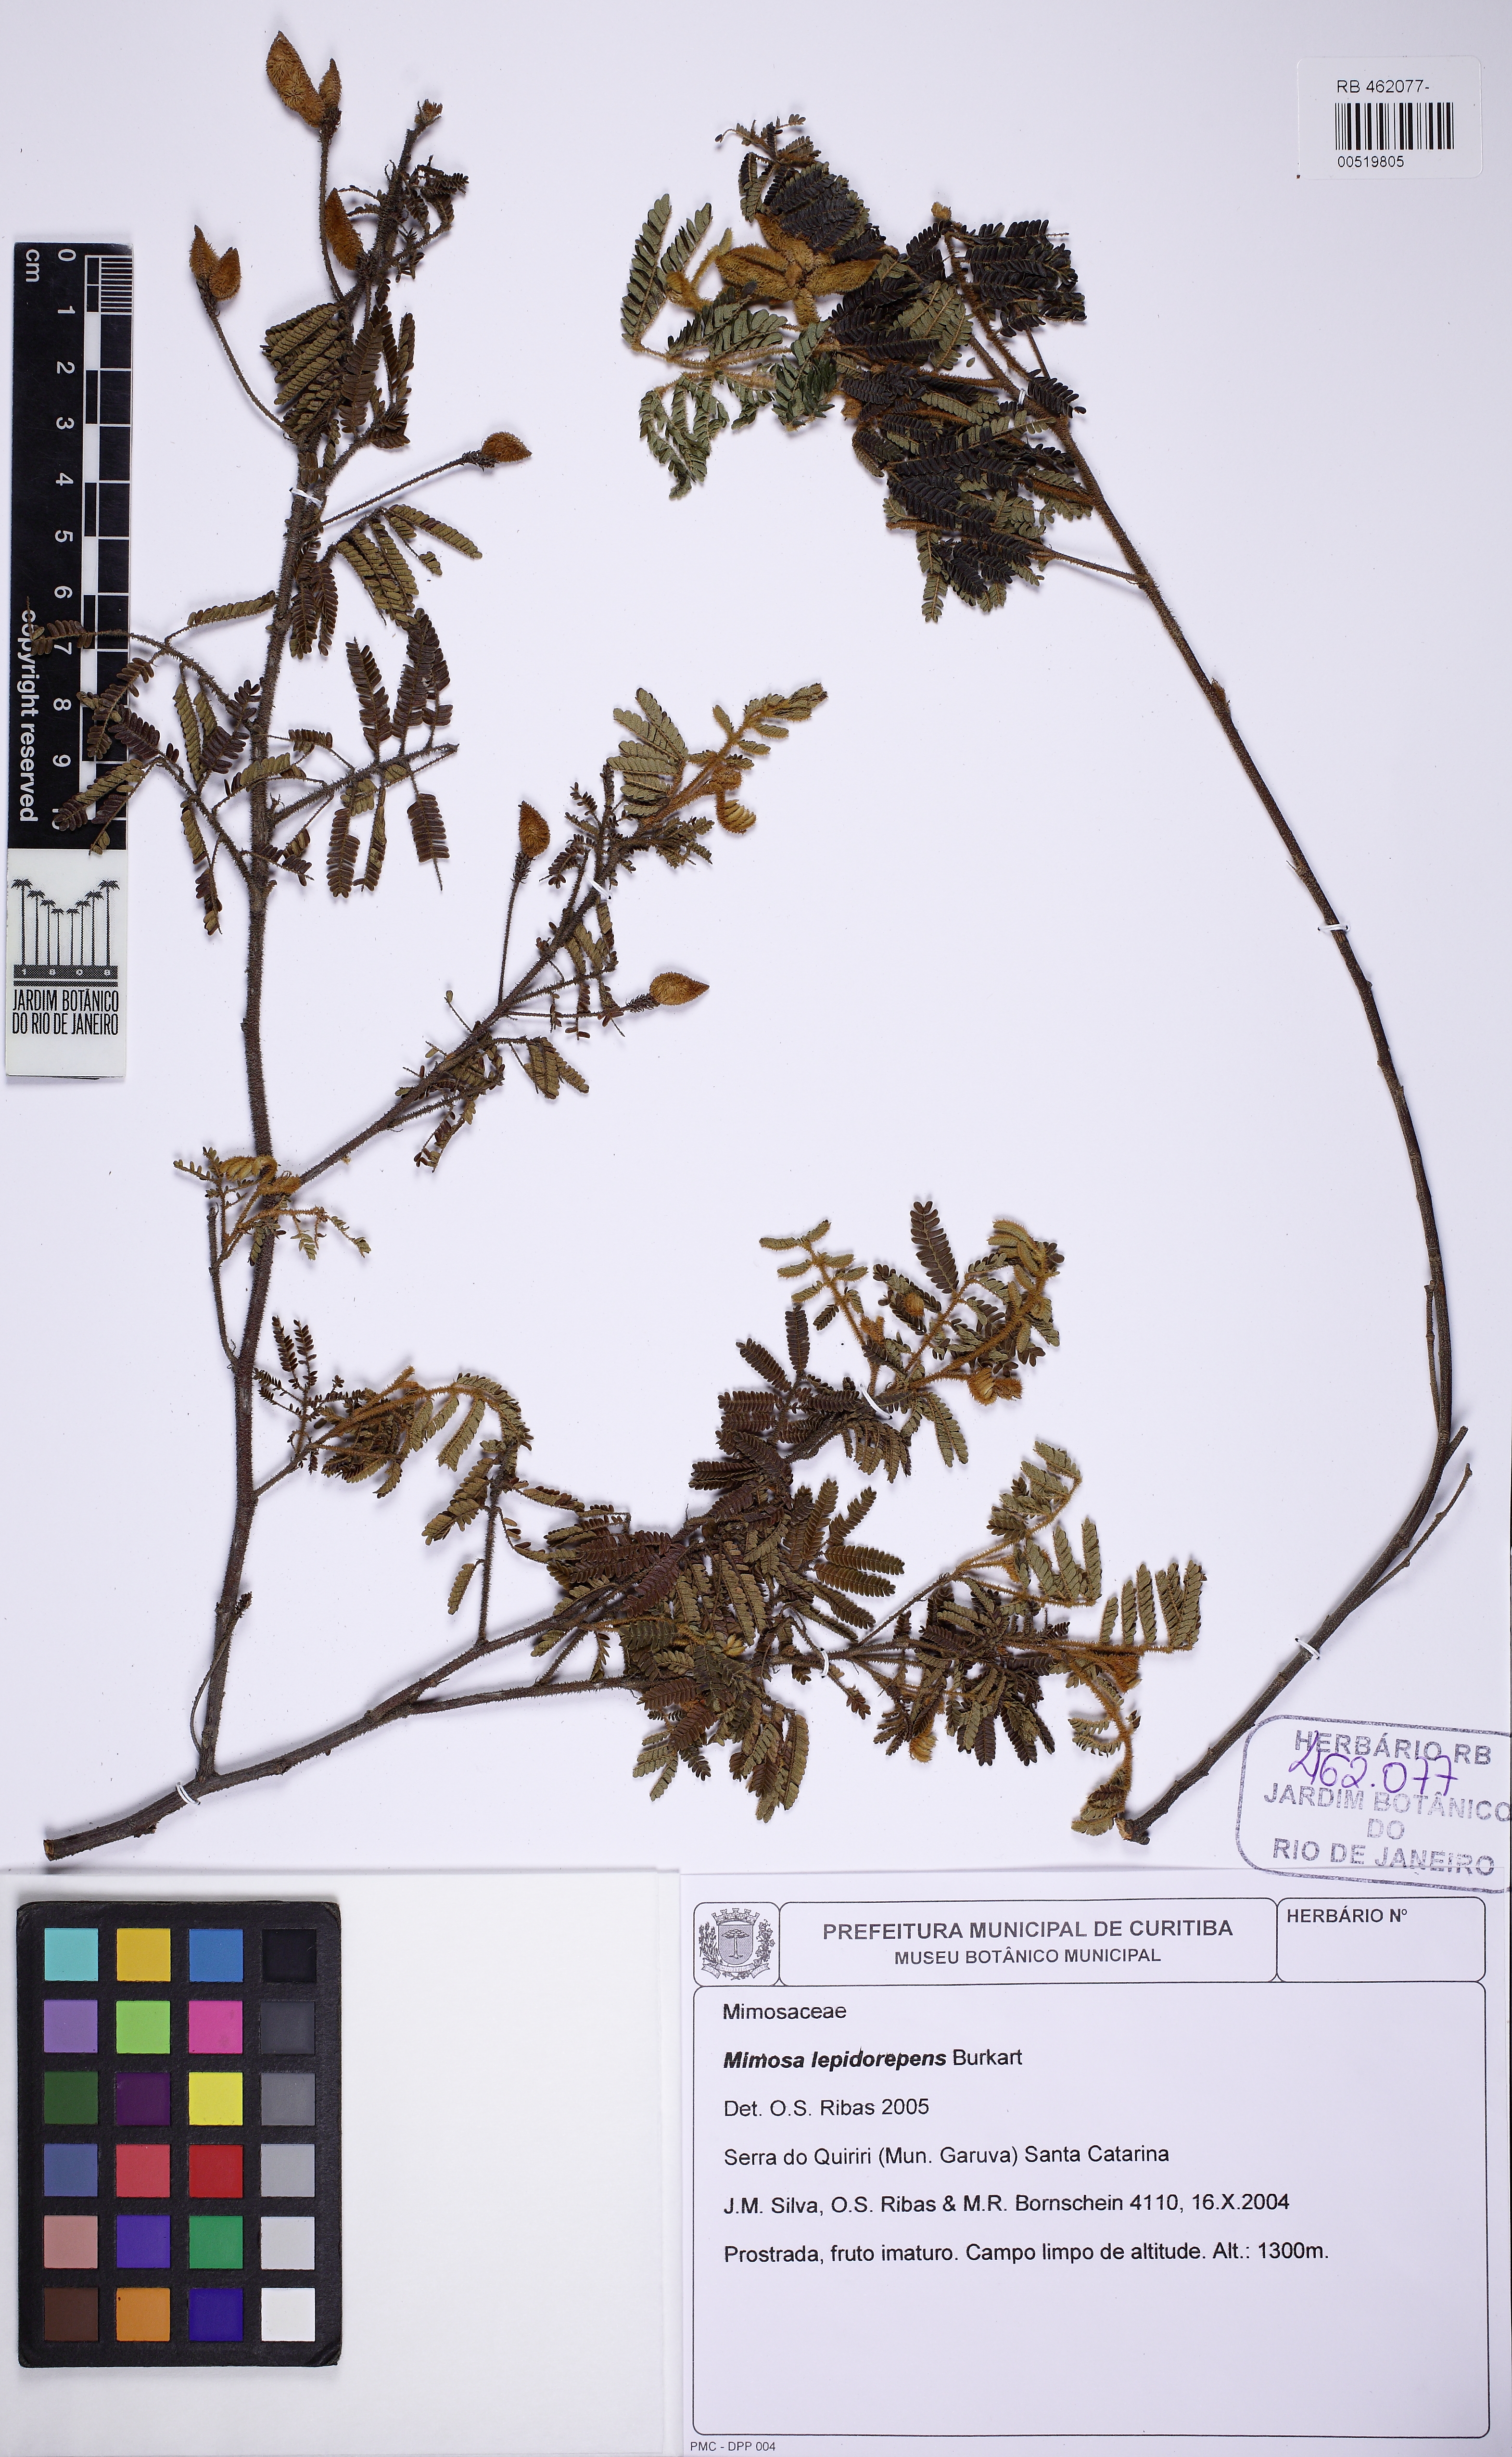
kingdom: Plantae
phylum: Tracheophyta
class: Magnoliopsida
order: Fabales
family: Fabaceae
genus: Mimosa
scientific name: Mimosa lepidorepens
